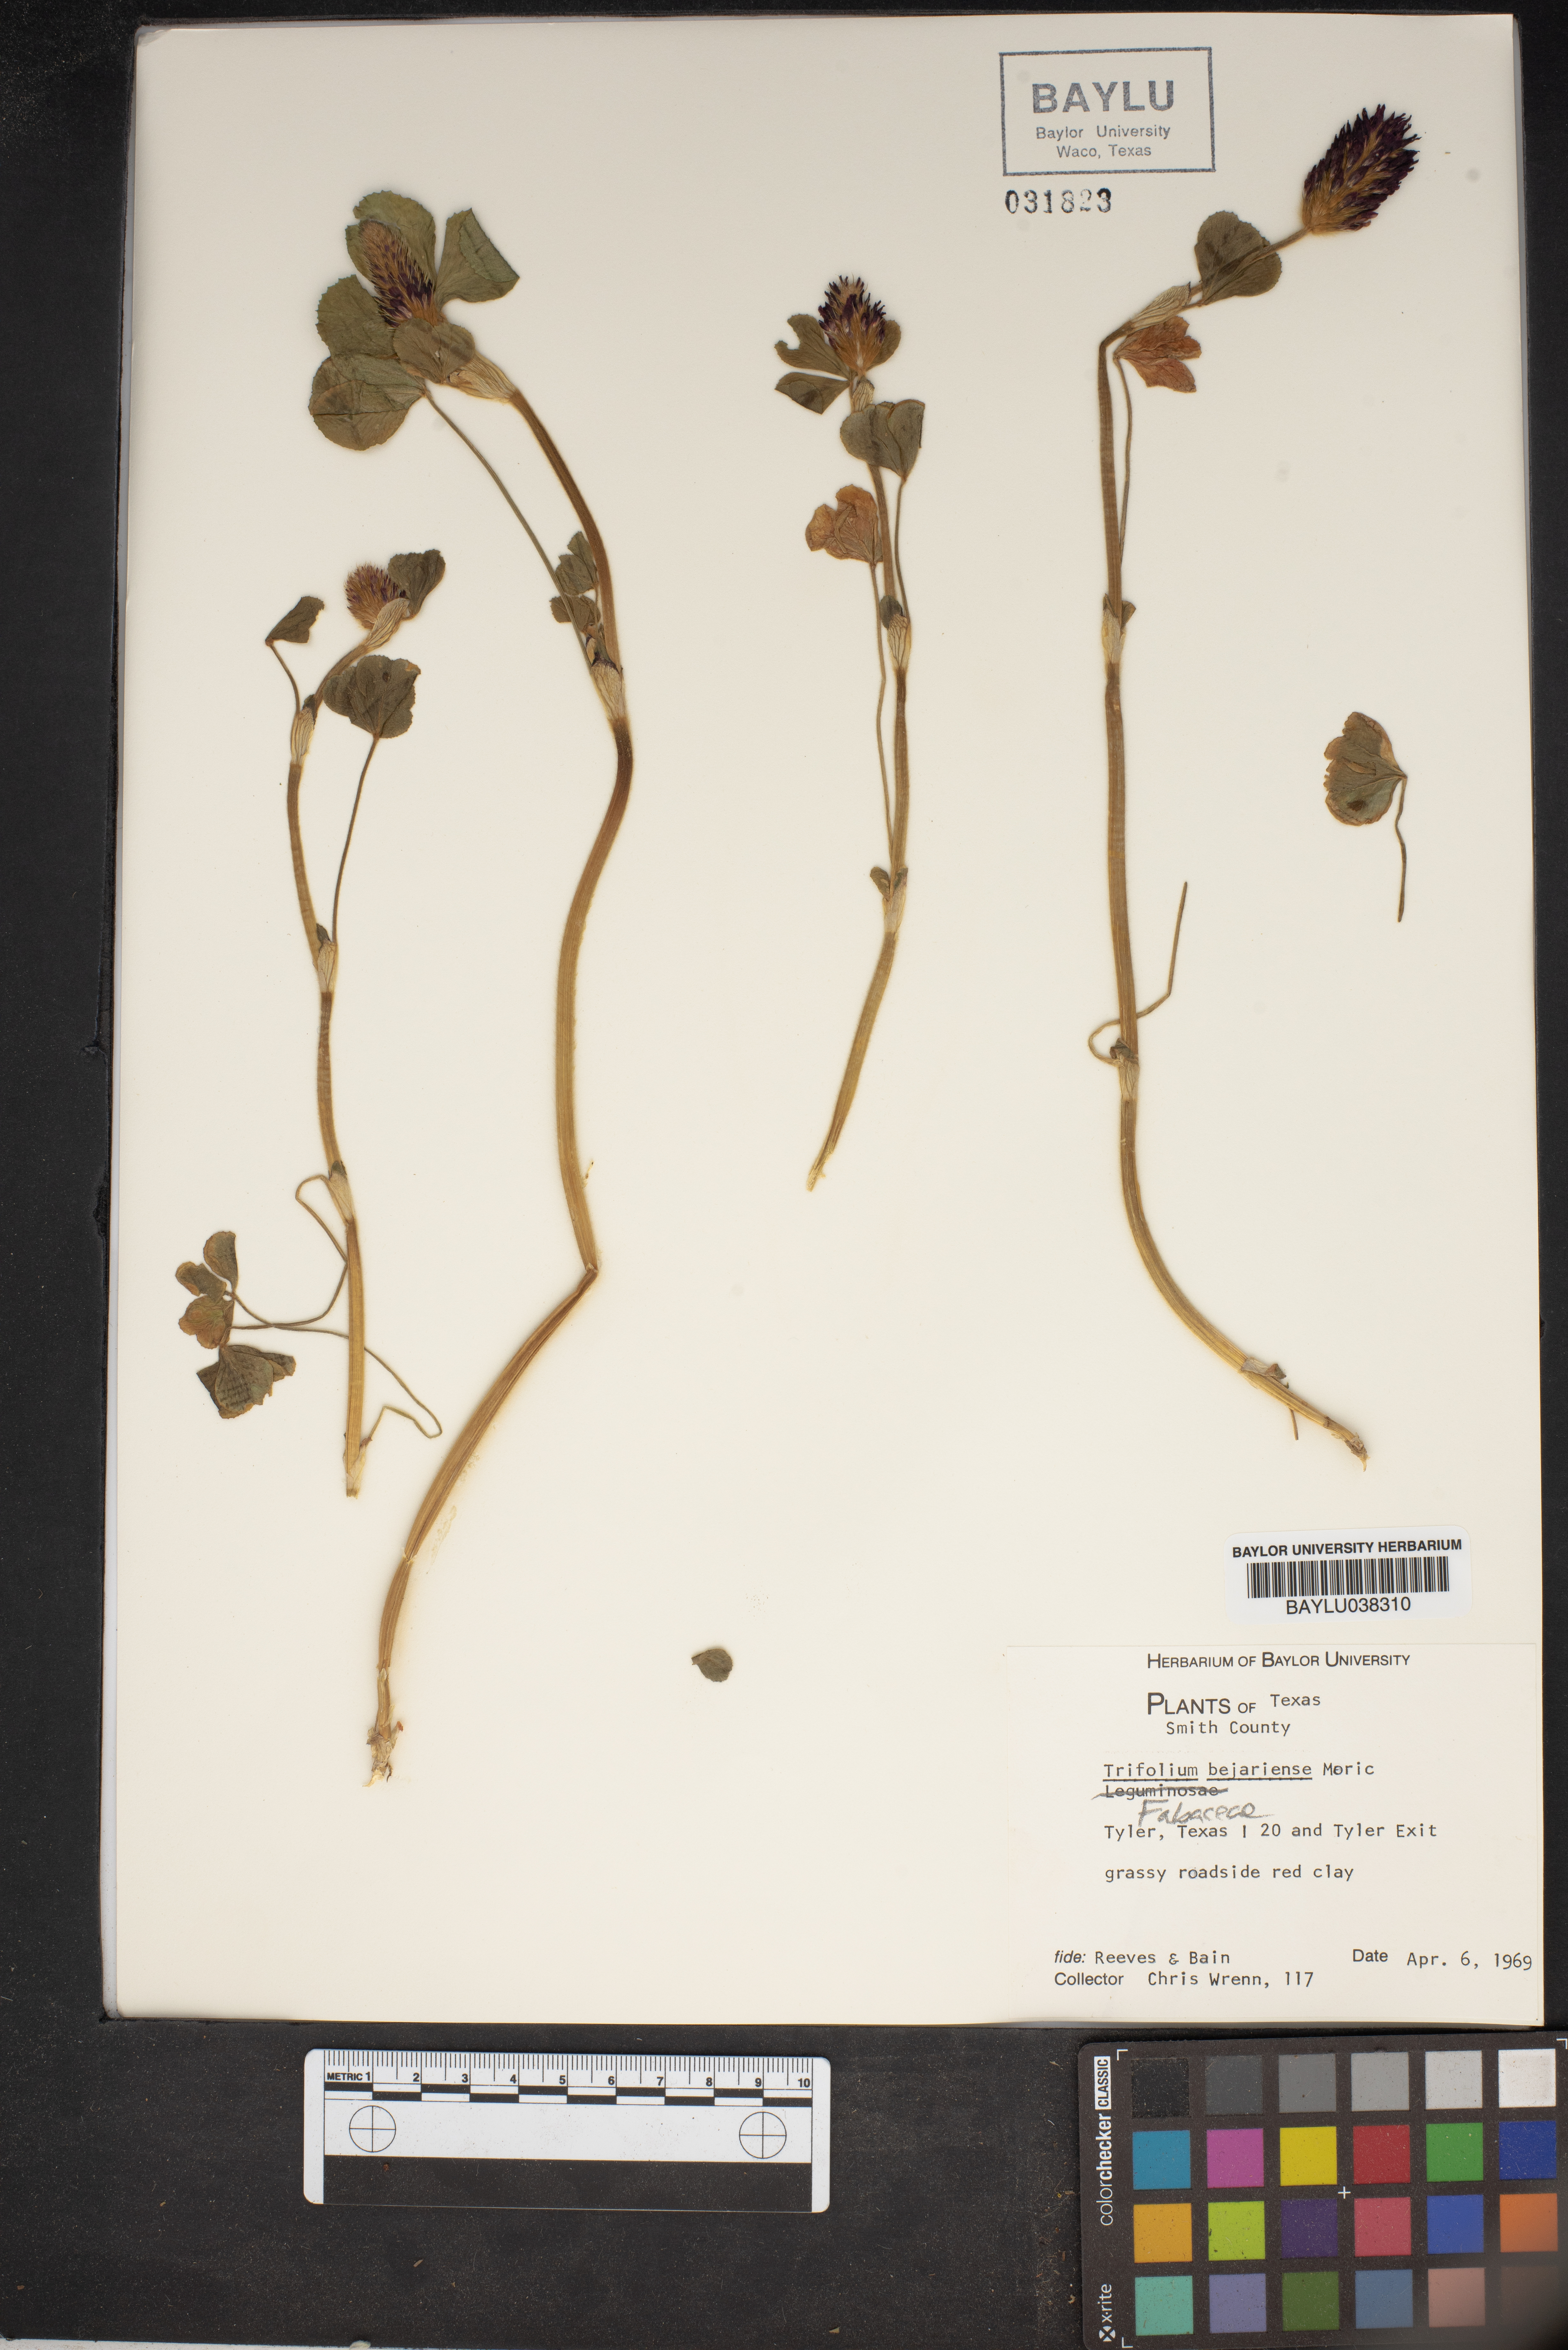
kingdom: Plantae
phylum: Tracheophyta
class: Magnoliopsida
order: Fabales
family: Fabaceae
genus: Trifolium
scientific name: Trifolium bejariense
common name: Bejar clover
